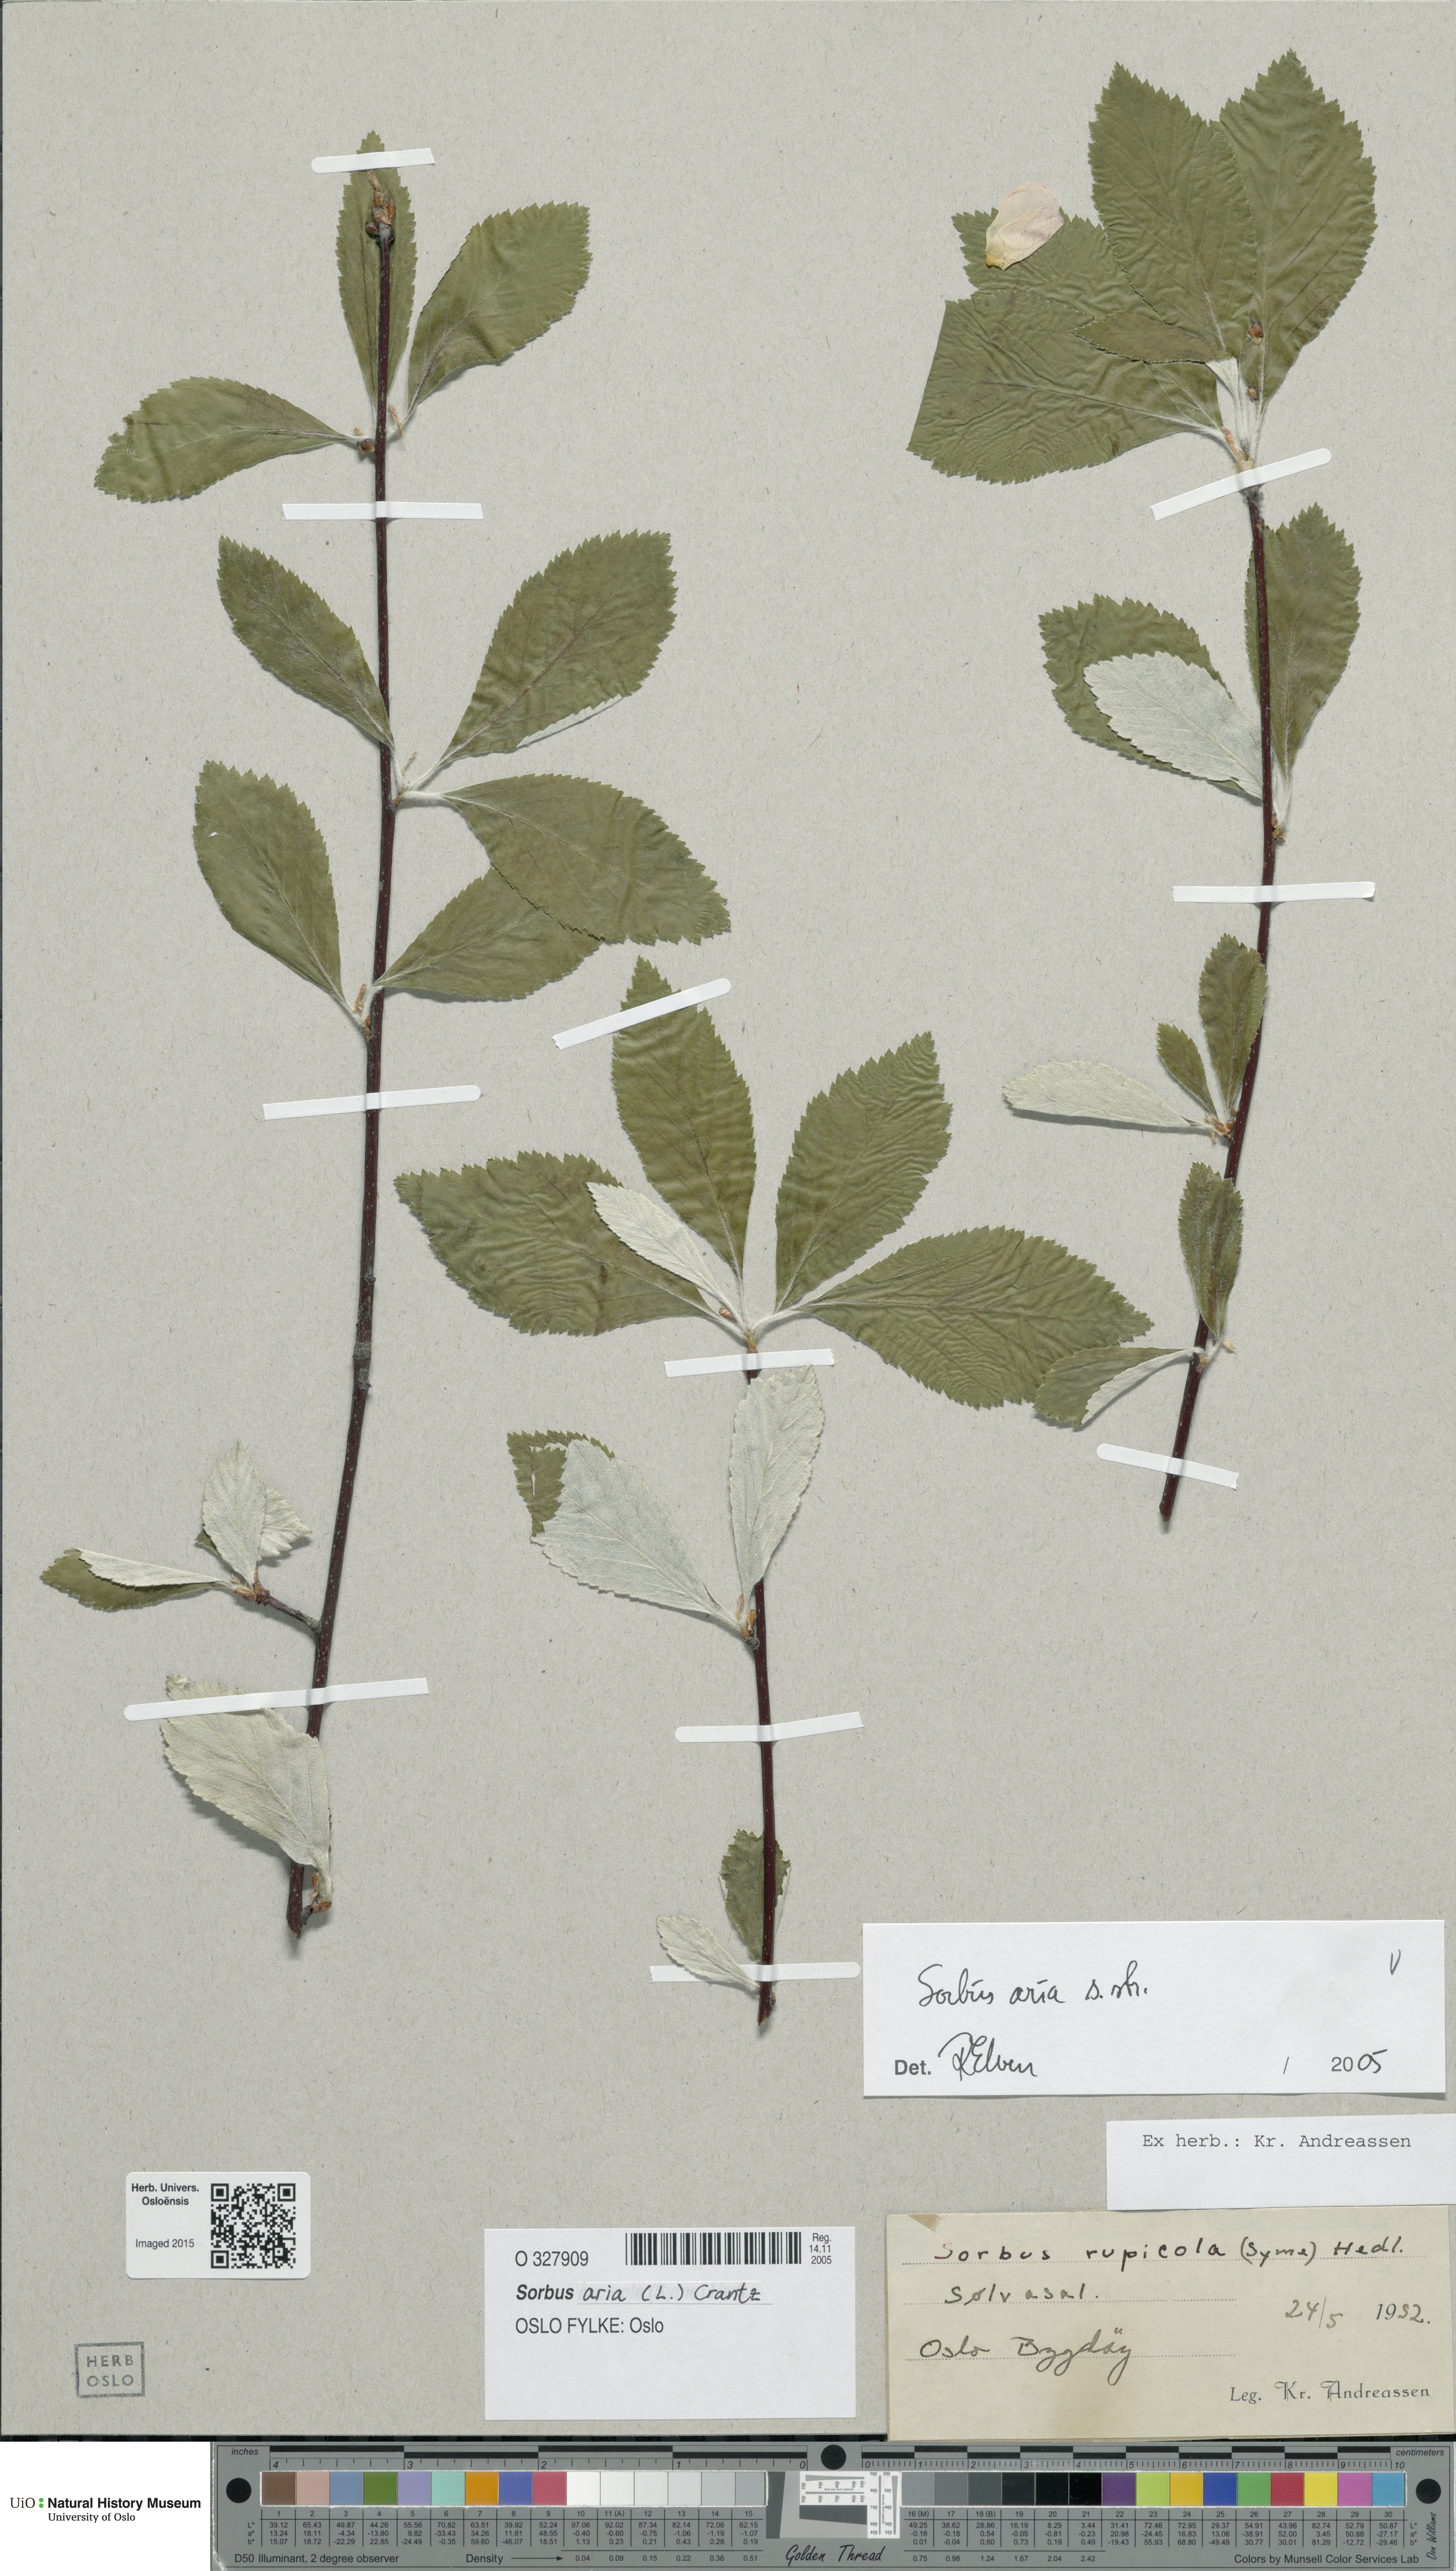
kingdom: Plantae
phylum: Tracheophyta
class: Magnoliopsida
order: Rosales
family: Rosaceae
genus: Aria
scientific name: Aria edulis
